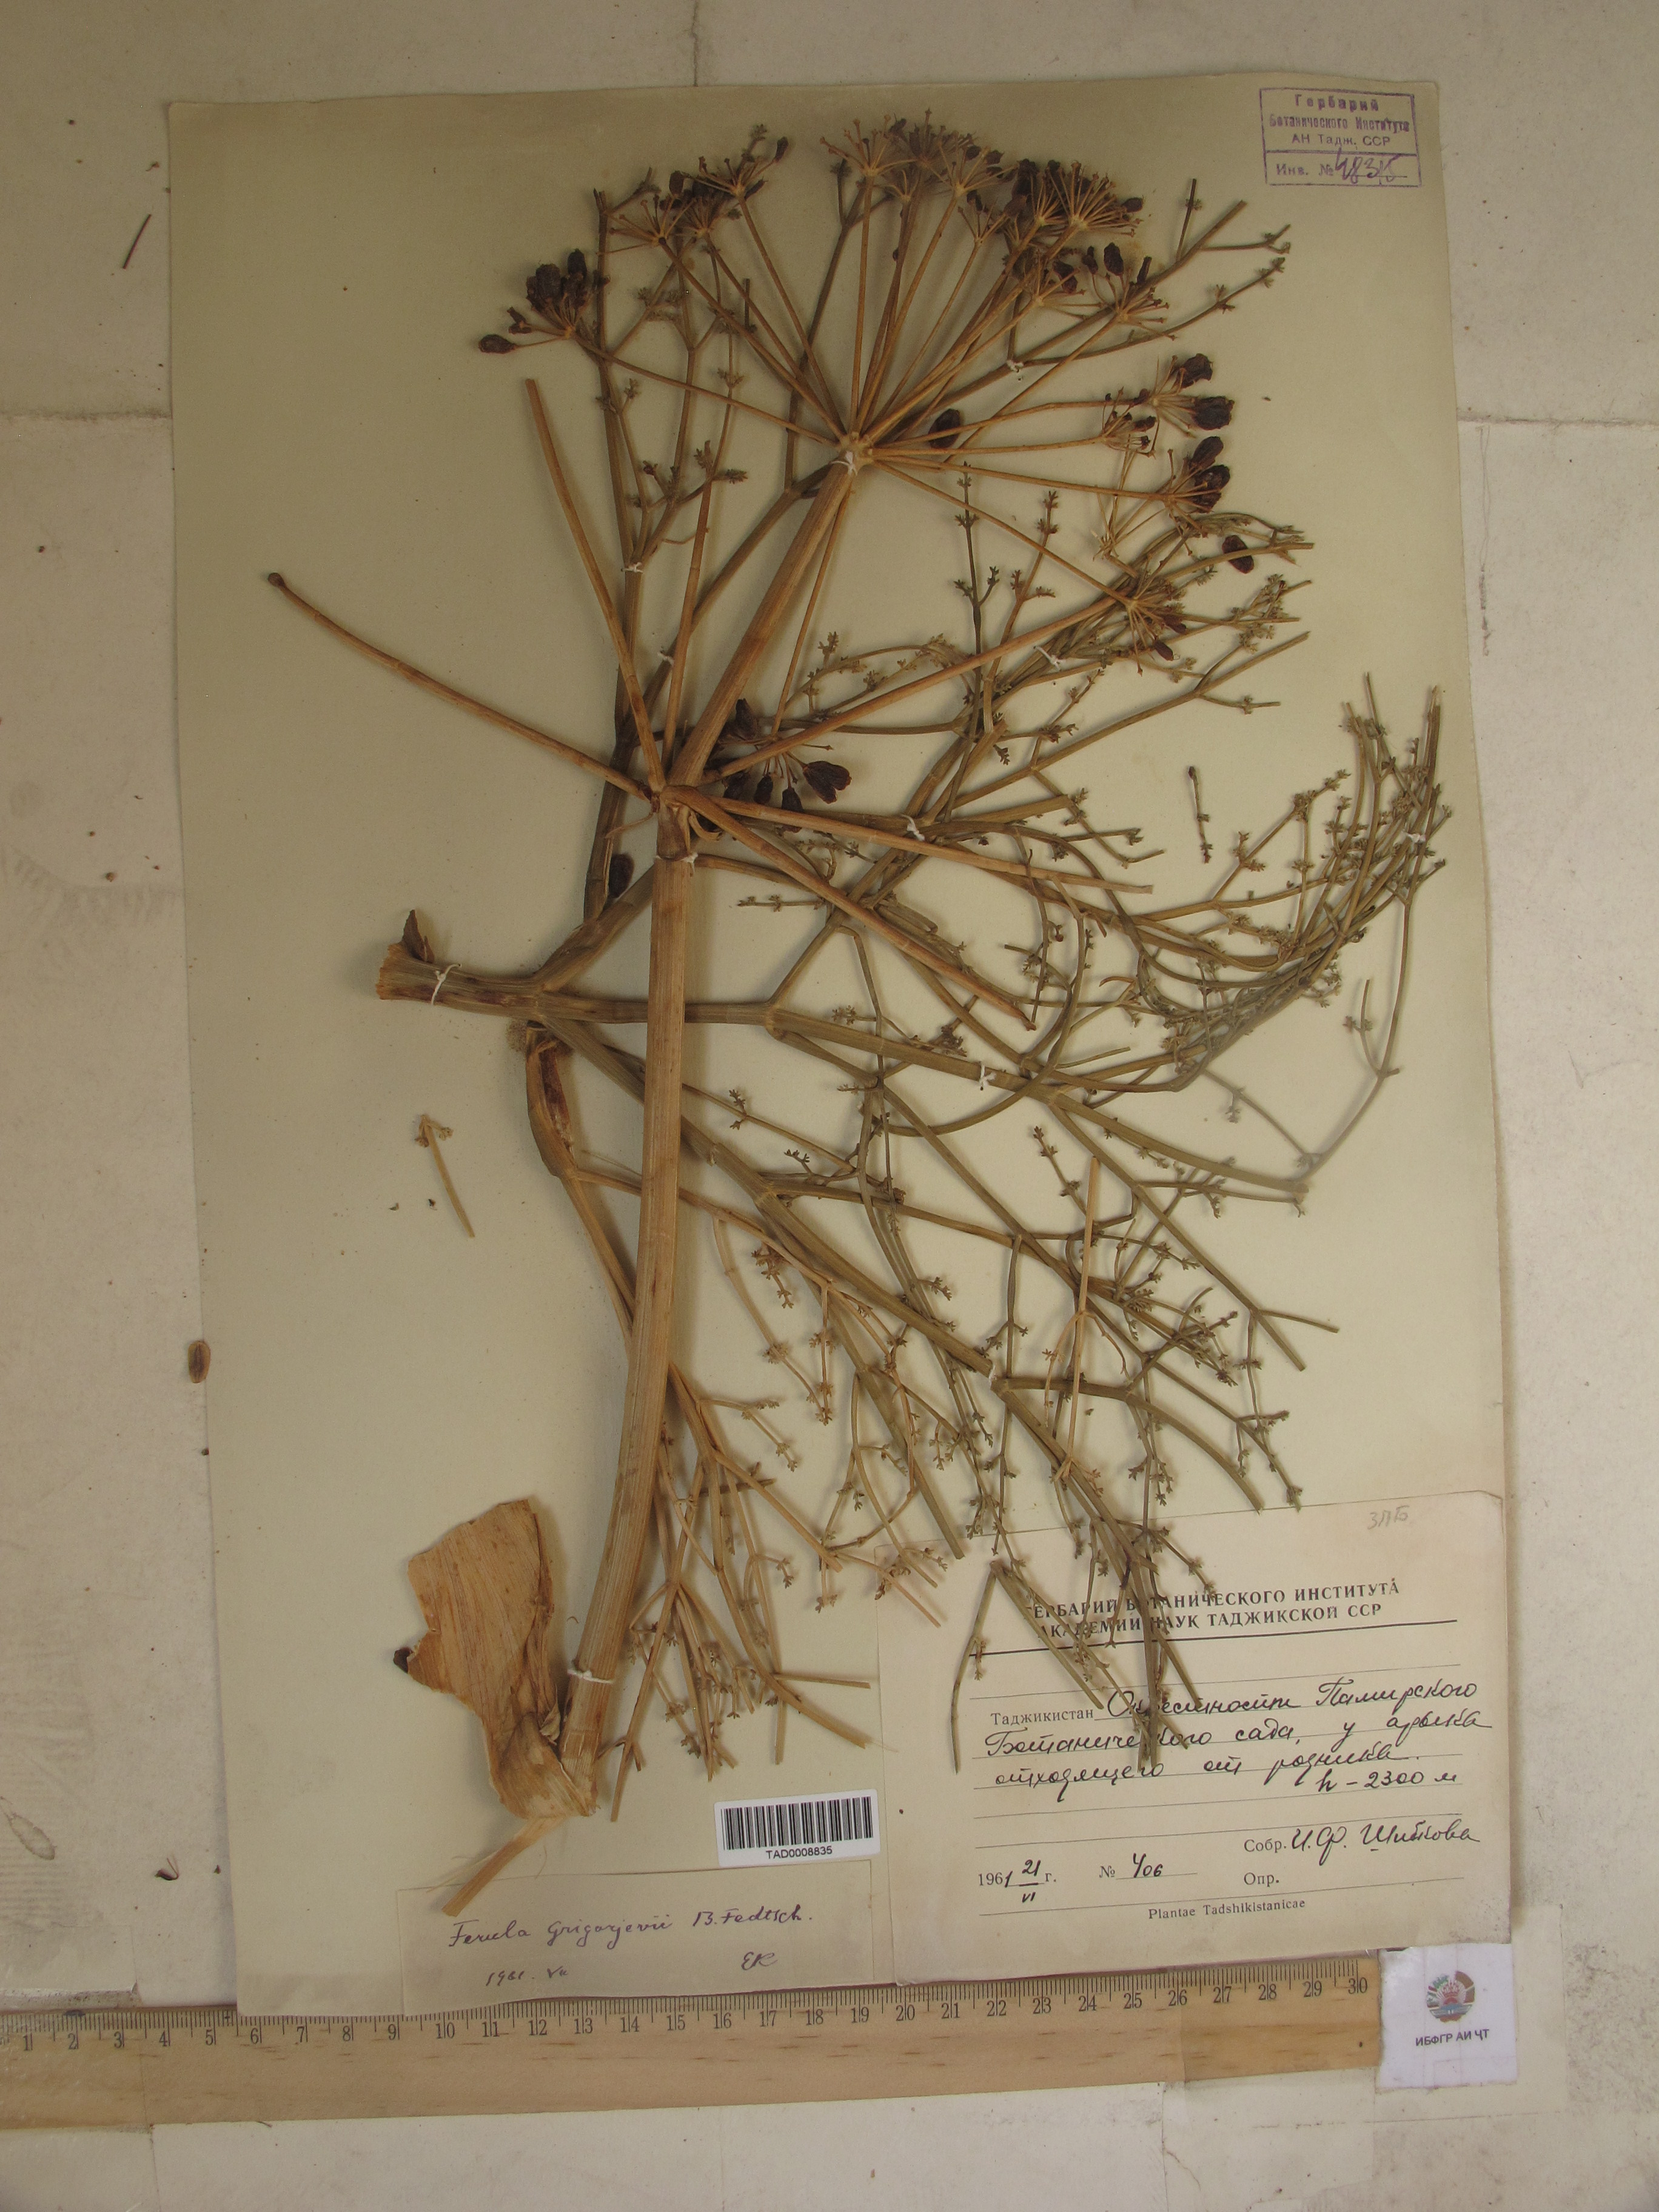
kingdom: Plantae
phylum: Tracheophyta
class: Magnoliopsida
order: Apiales
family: Apiaceae
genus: Ferula
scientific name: Ferula grigoriewii
